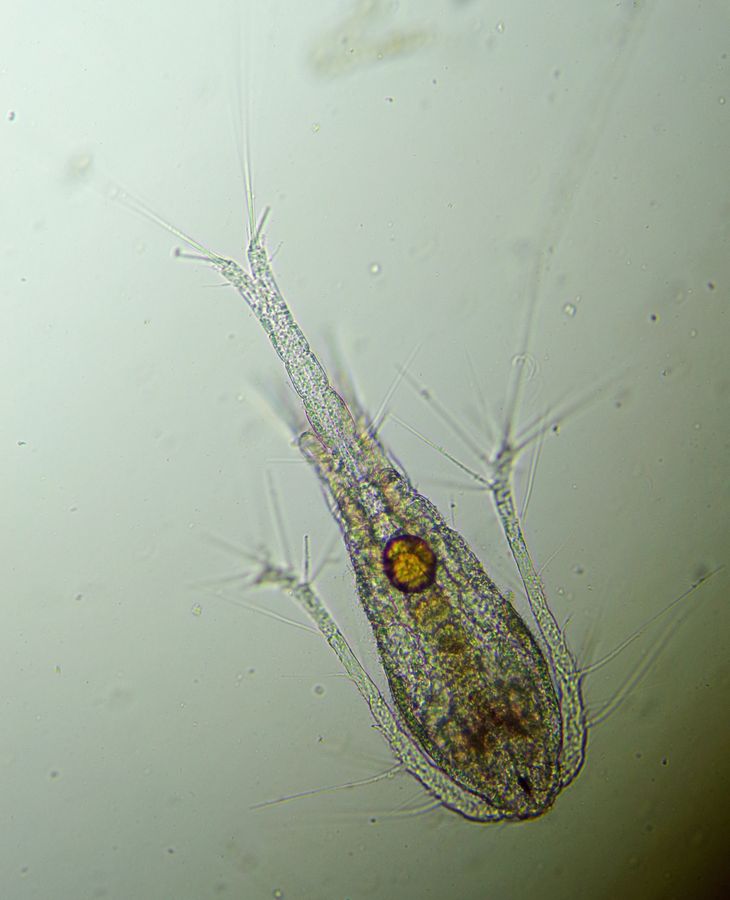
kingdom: Animalia
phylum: Arthropoda
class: Copepoda
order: Cyclopoida
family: Oithonidae
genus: Oithona
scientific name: Oithona similis
